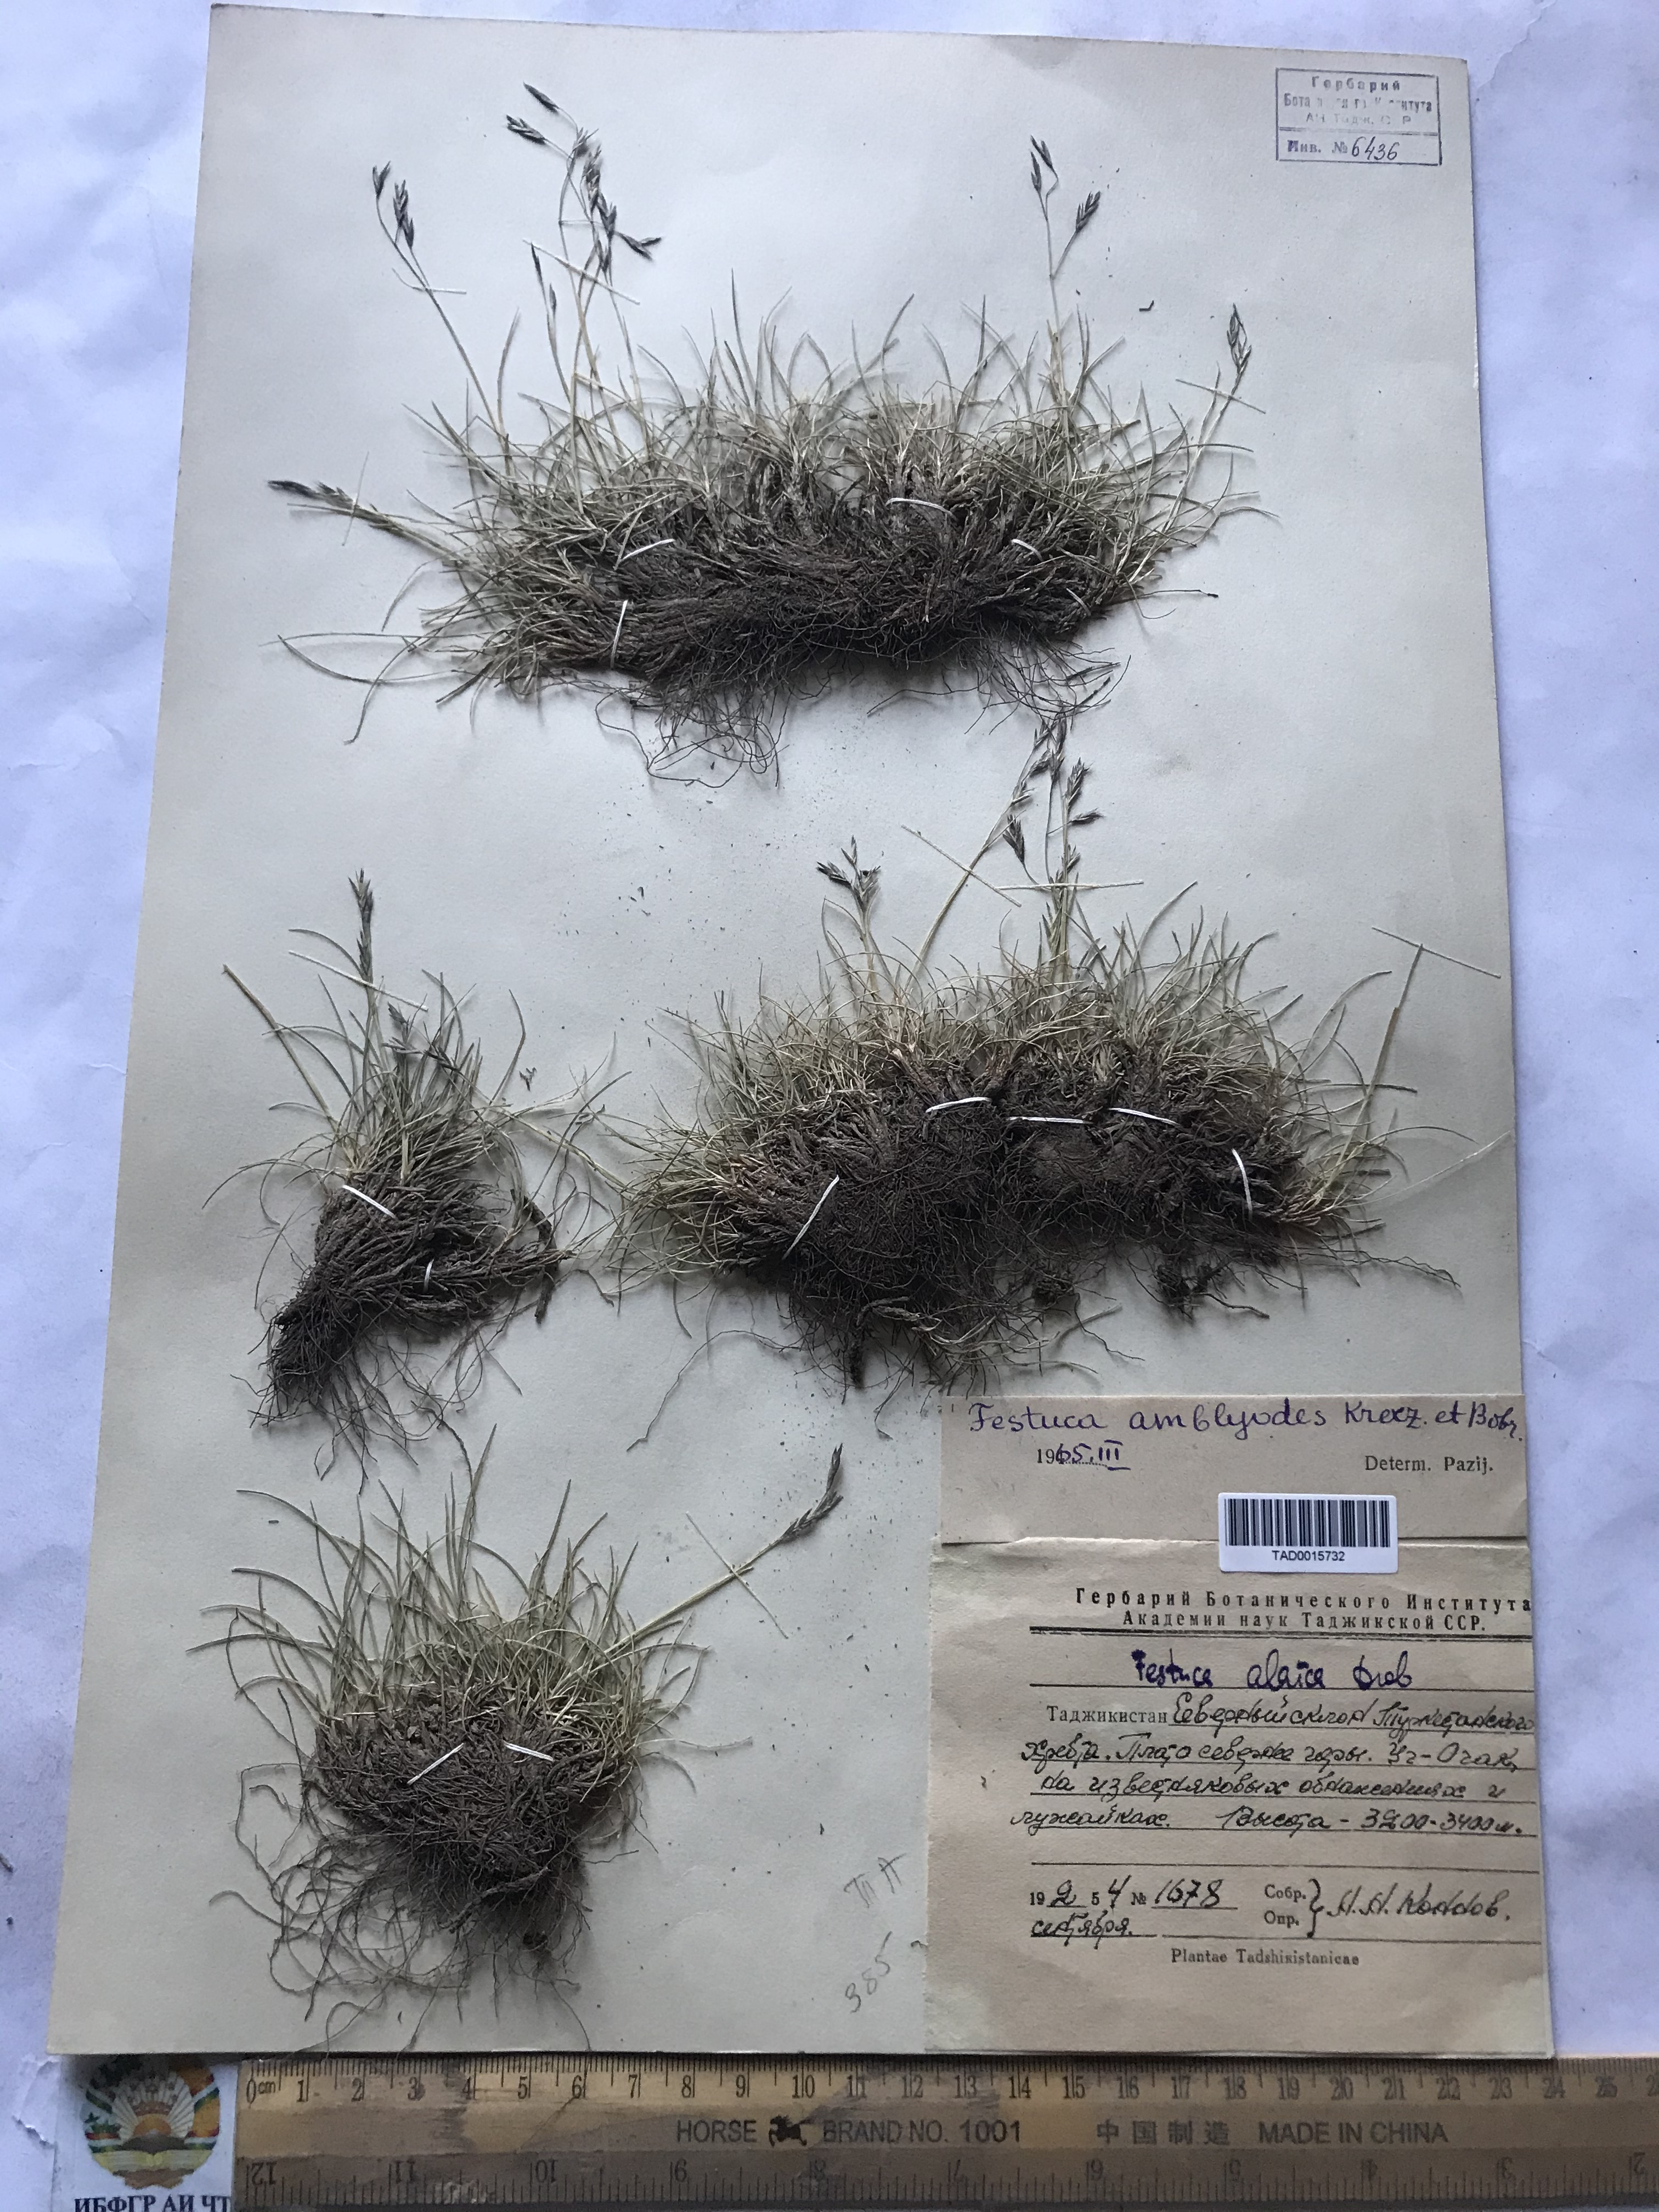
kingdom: Plantae
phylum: Tracheophyta
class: Liliopsida
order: Poales
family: Poaceae
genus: Festuca
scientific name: Festuca amblyodes
